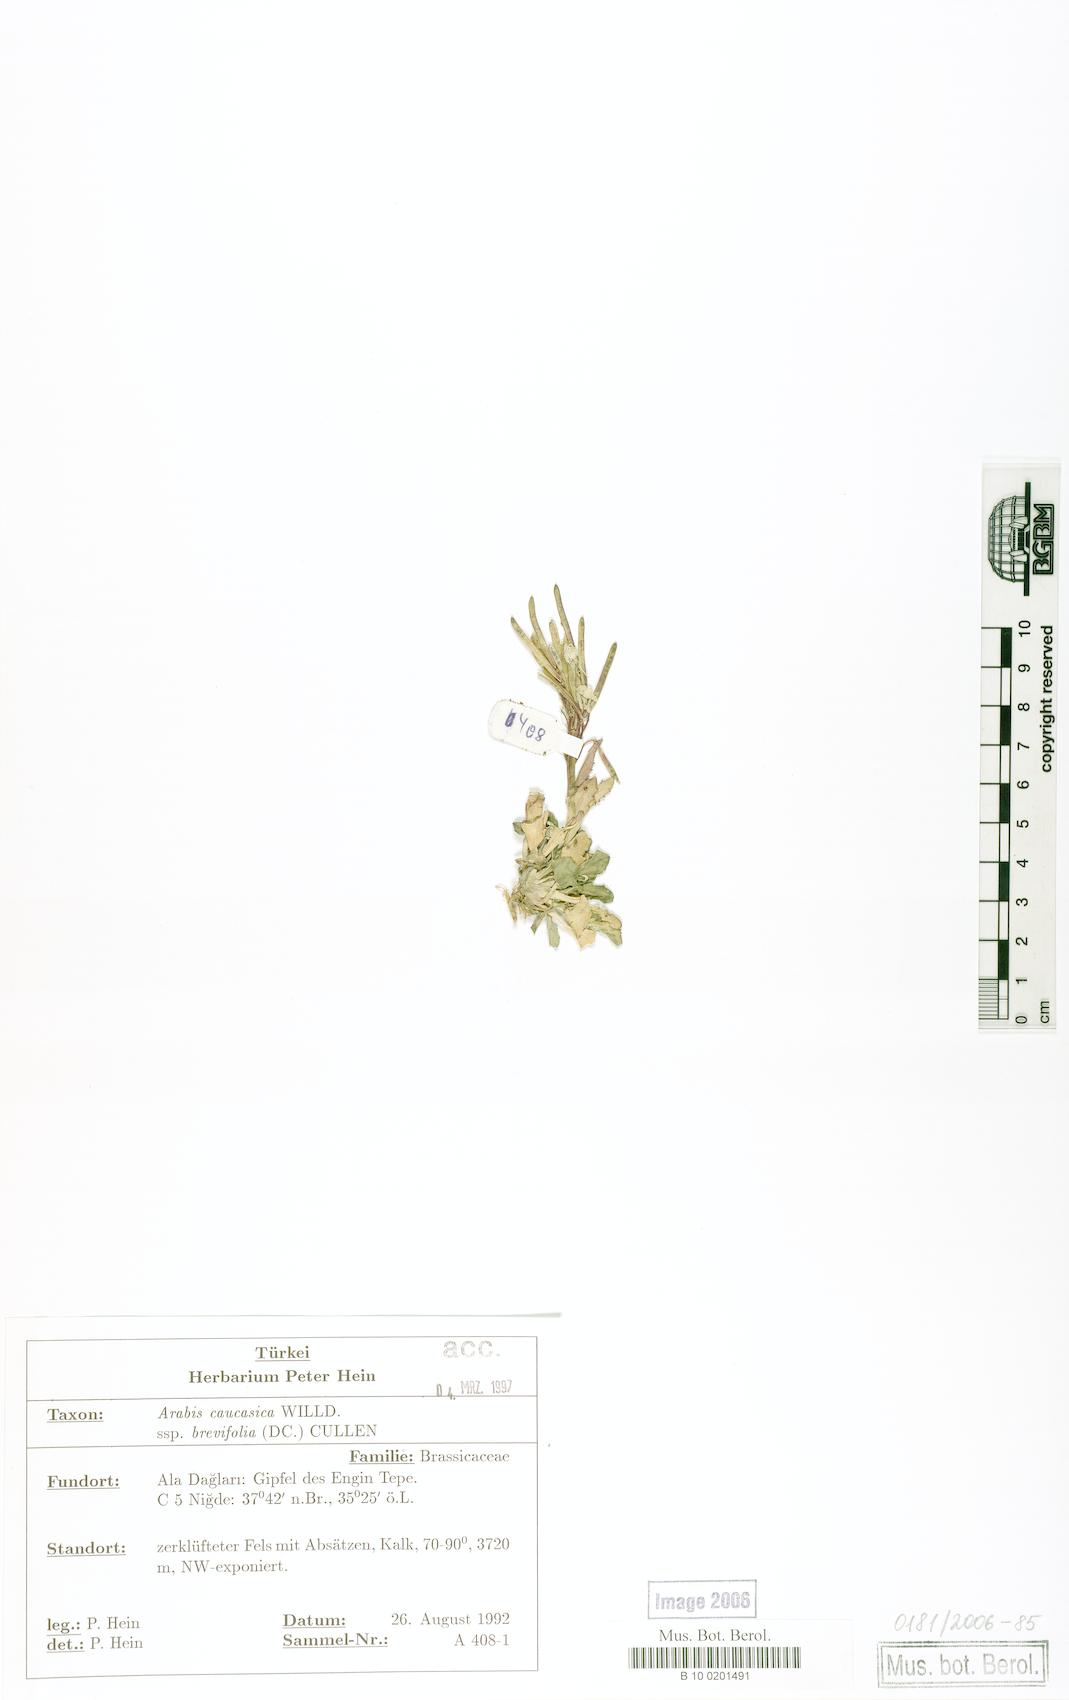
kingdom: Plantae
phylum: Tracheophyta
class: Magnoliopsida
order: Brassicales
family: Brassicaceae
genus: Arabis
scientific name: Arabis caucasica
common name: Gray rockcress
